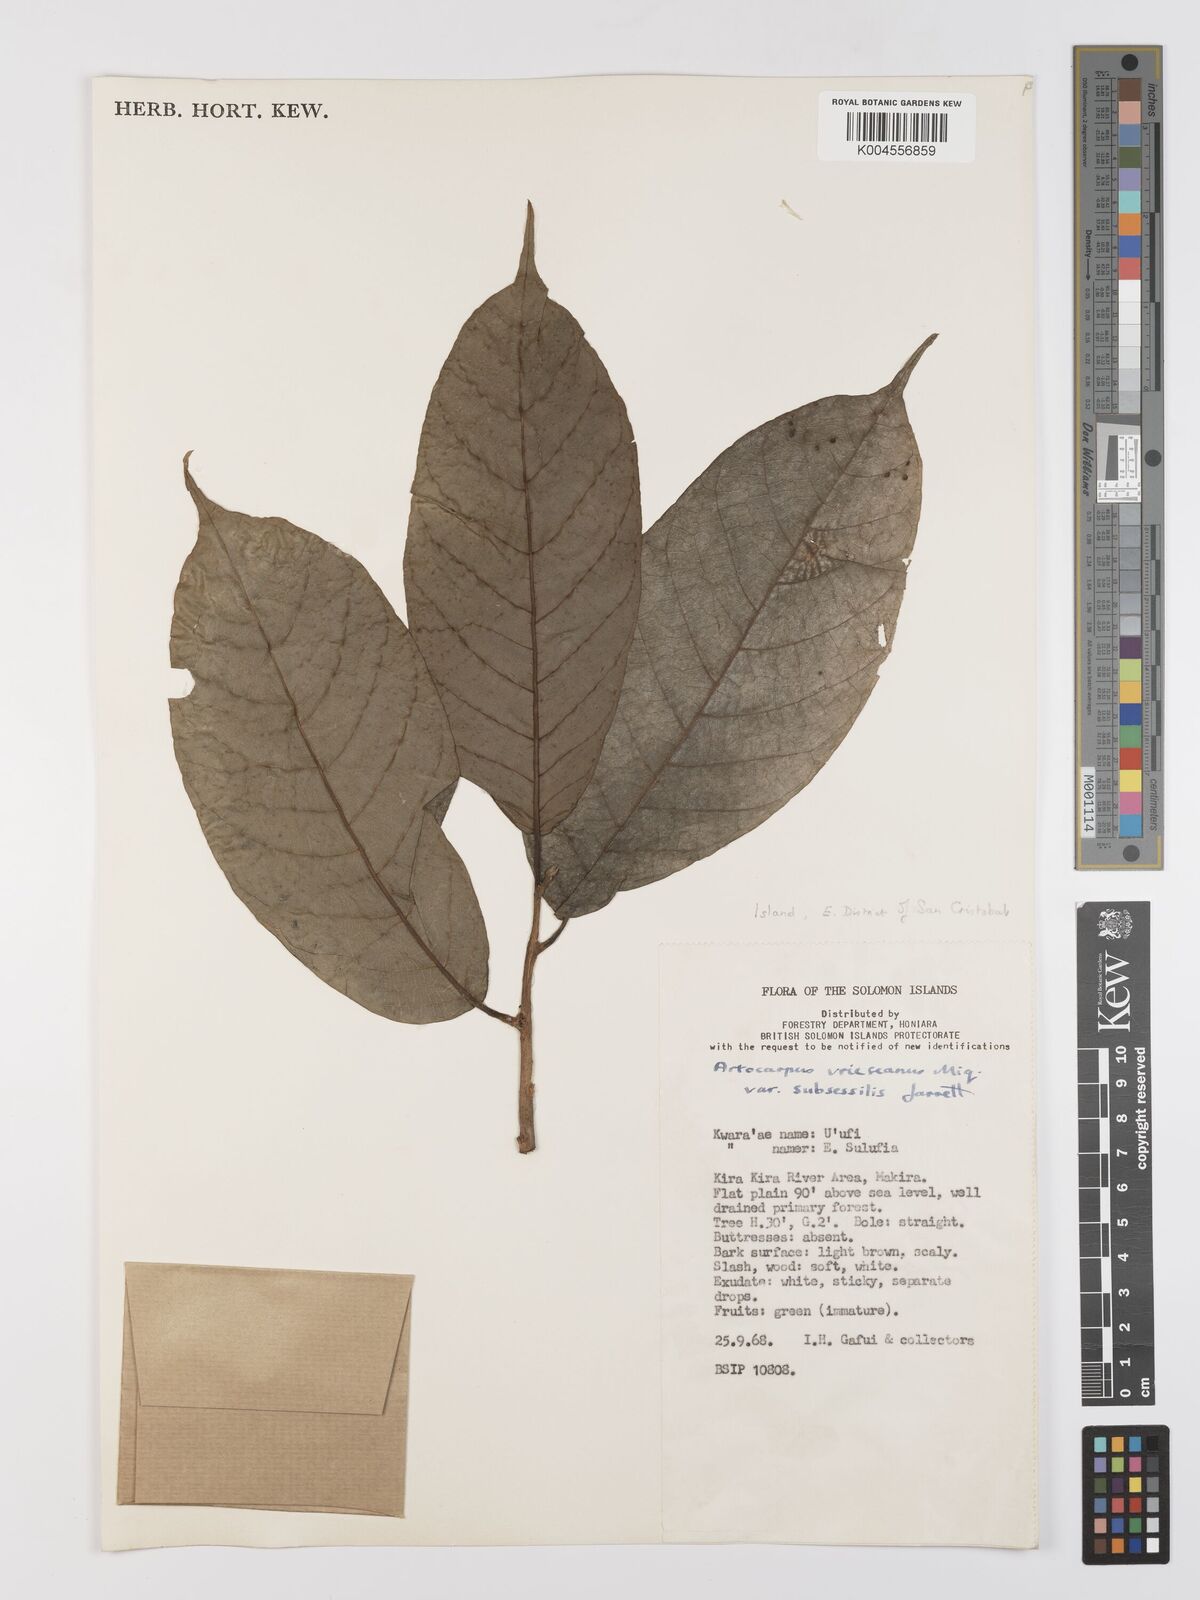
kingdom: Plantae
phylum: Tracheophyta
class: Magnoliopsida
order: Rosales
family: Moraceae
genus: Artocarpus
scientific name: Artocarpus vrieseanus
